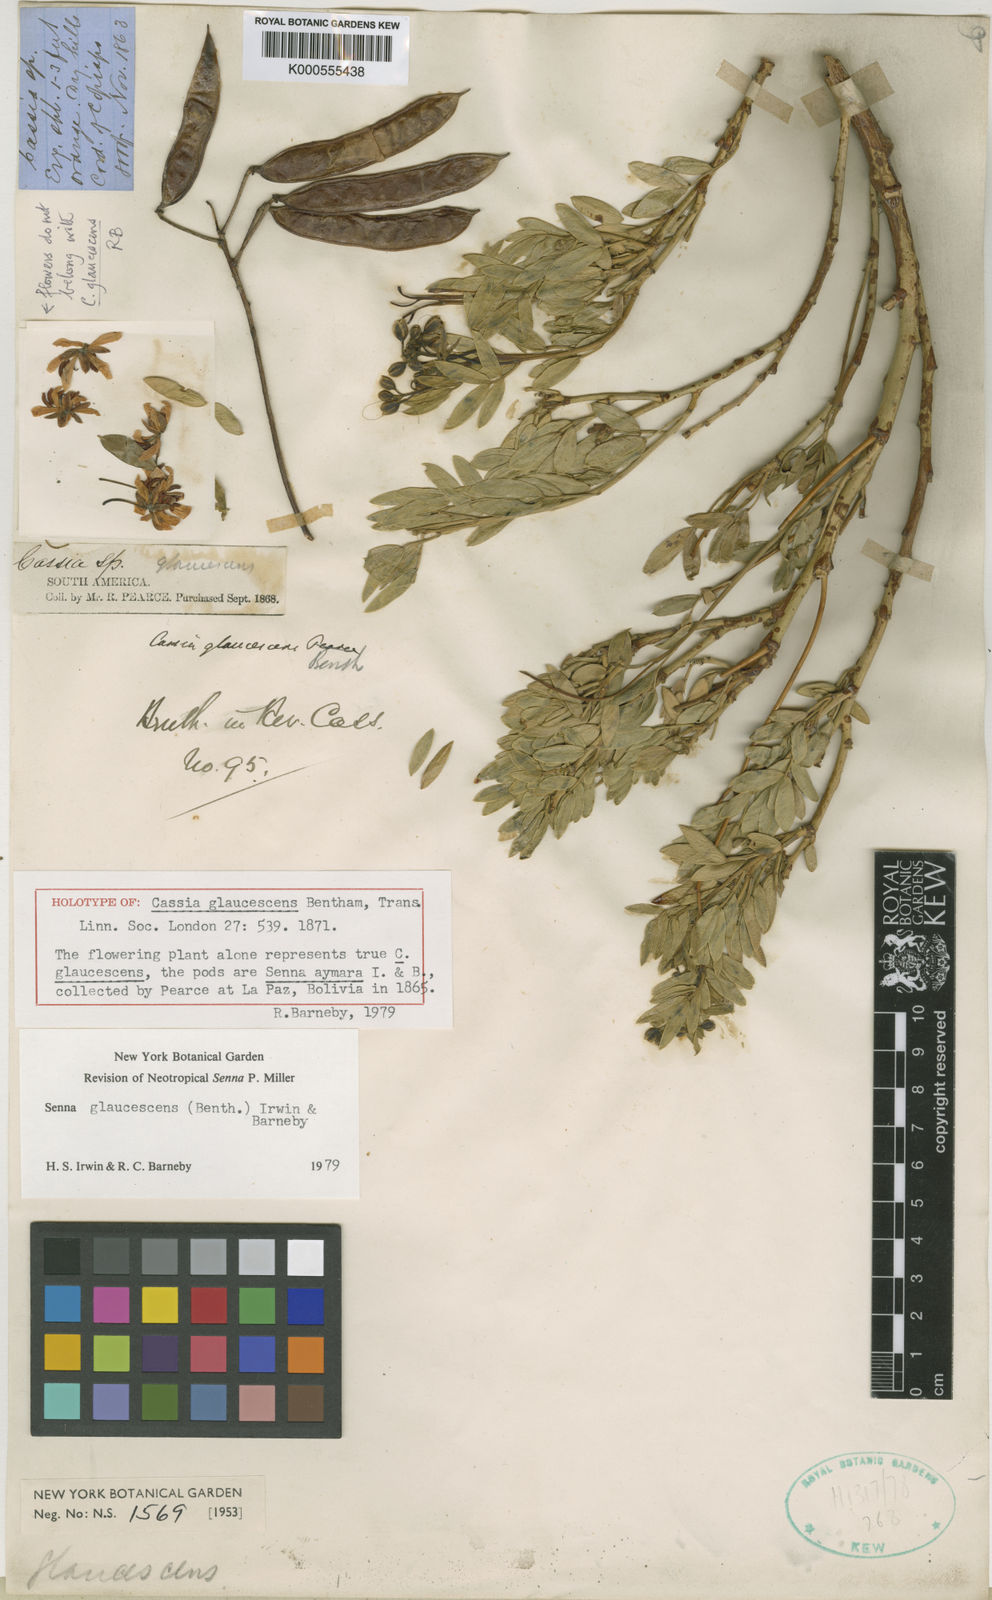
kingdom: Plantae
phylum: Tracheophyta
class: Magnoliopsida
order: Fabales
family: Fabaceae
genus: Senna
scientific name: Senna urmenetae
